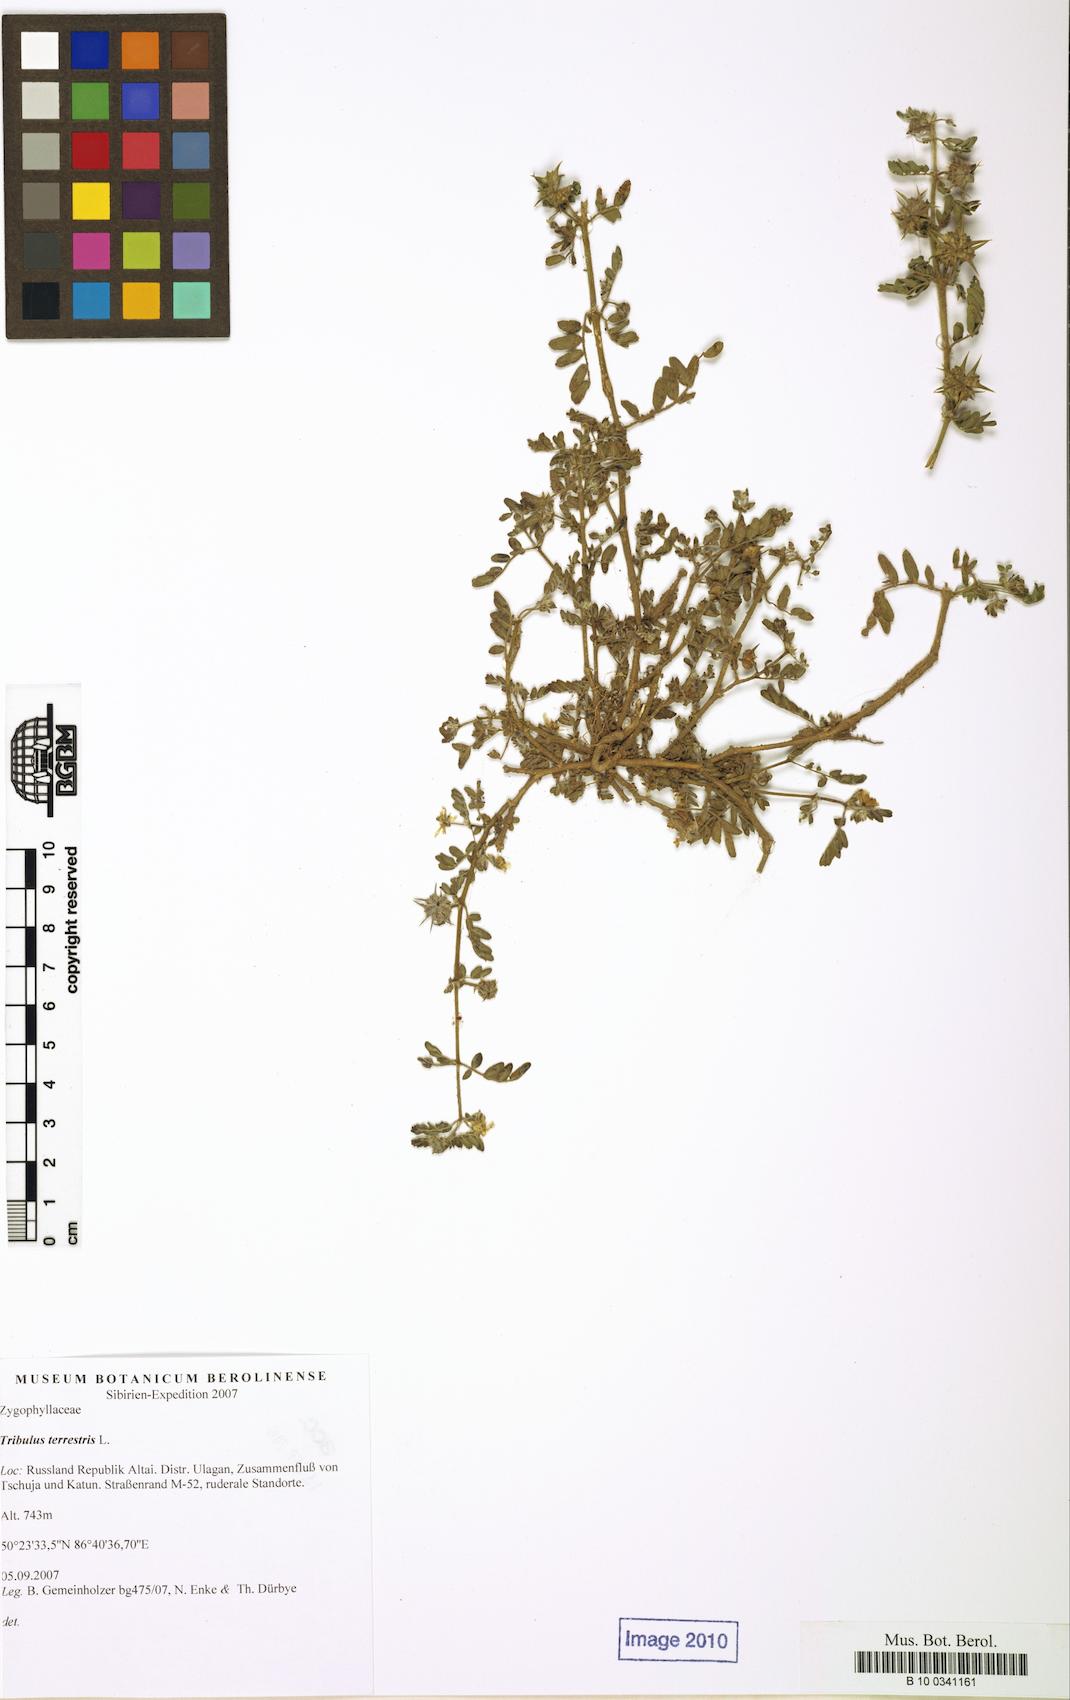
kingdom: Plantae
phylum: Tracheophyta
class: Magnoliopsida
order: Zygophyllales
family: Zygophyllaceae
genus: Tribulus
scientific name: Tribulus terrestris
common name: Puncturevine
